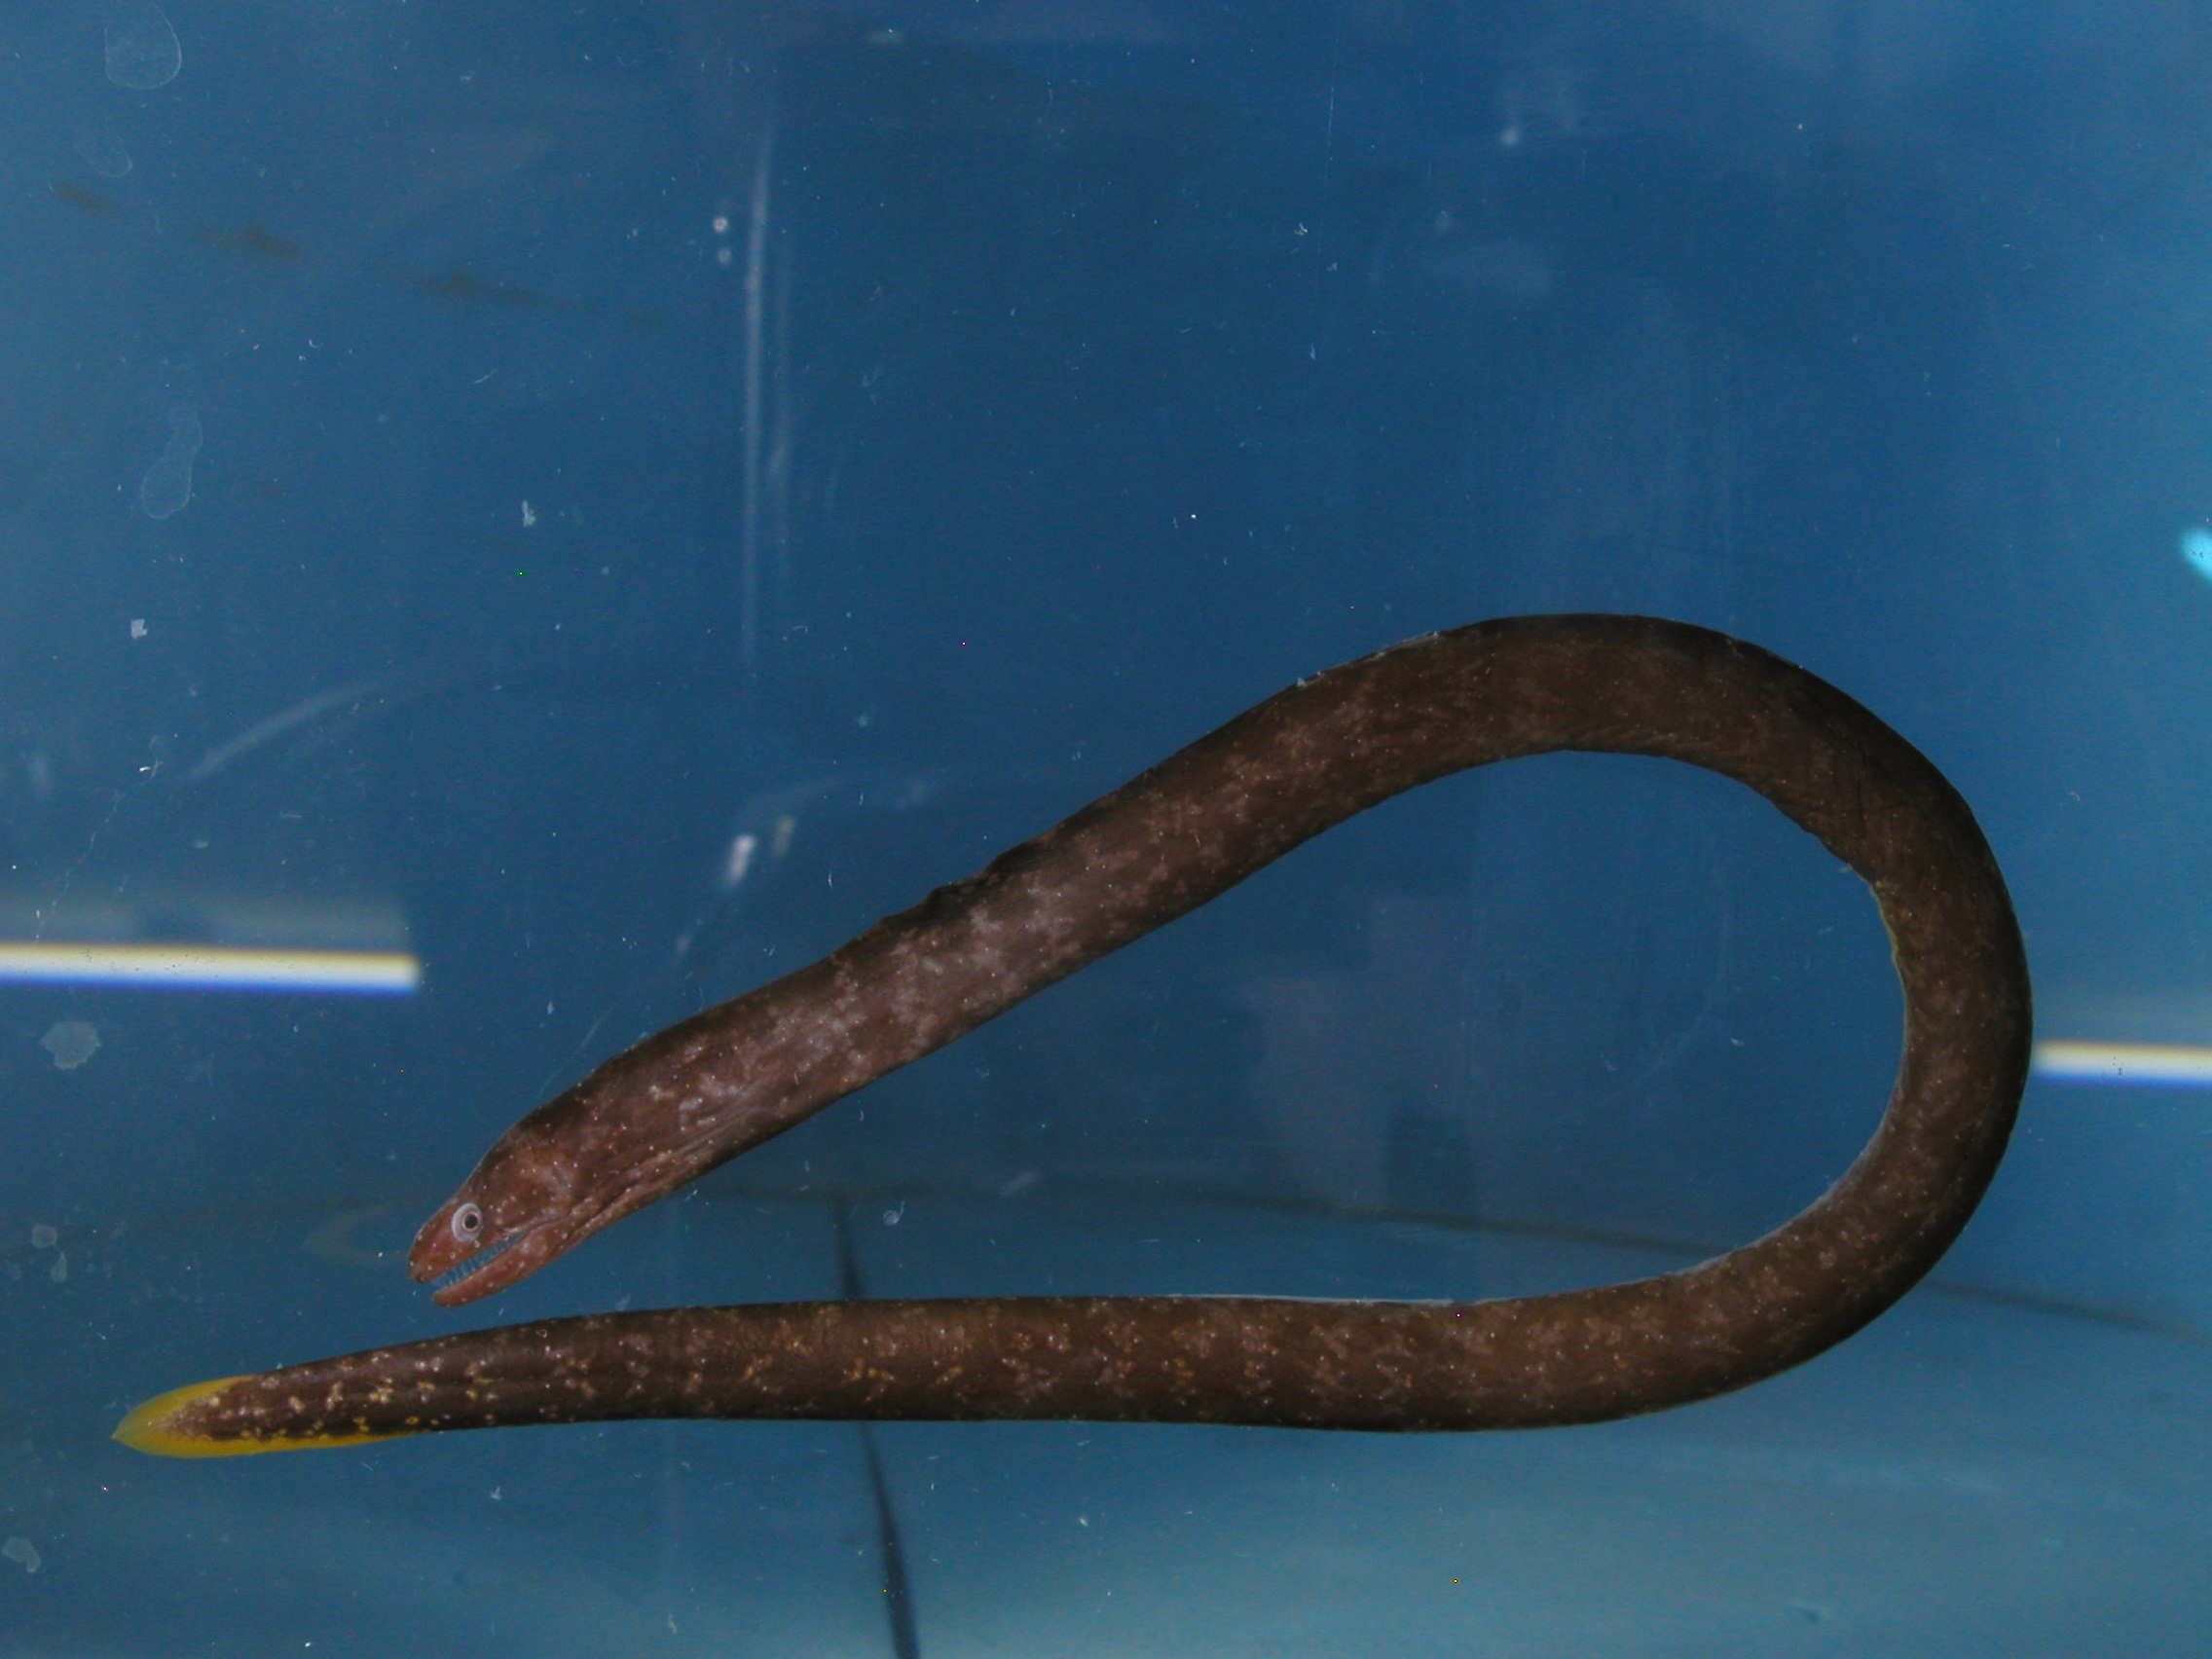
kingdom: Animalia
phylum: Chordata
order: Anguilliformes
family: Muraenidae
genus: Uropterygius
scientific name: Uropterygius xanthopterus
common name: Freckleface reef-eel
